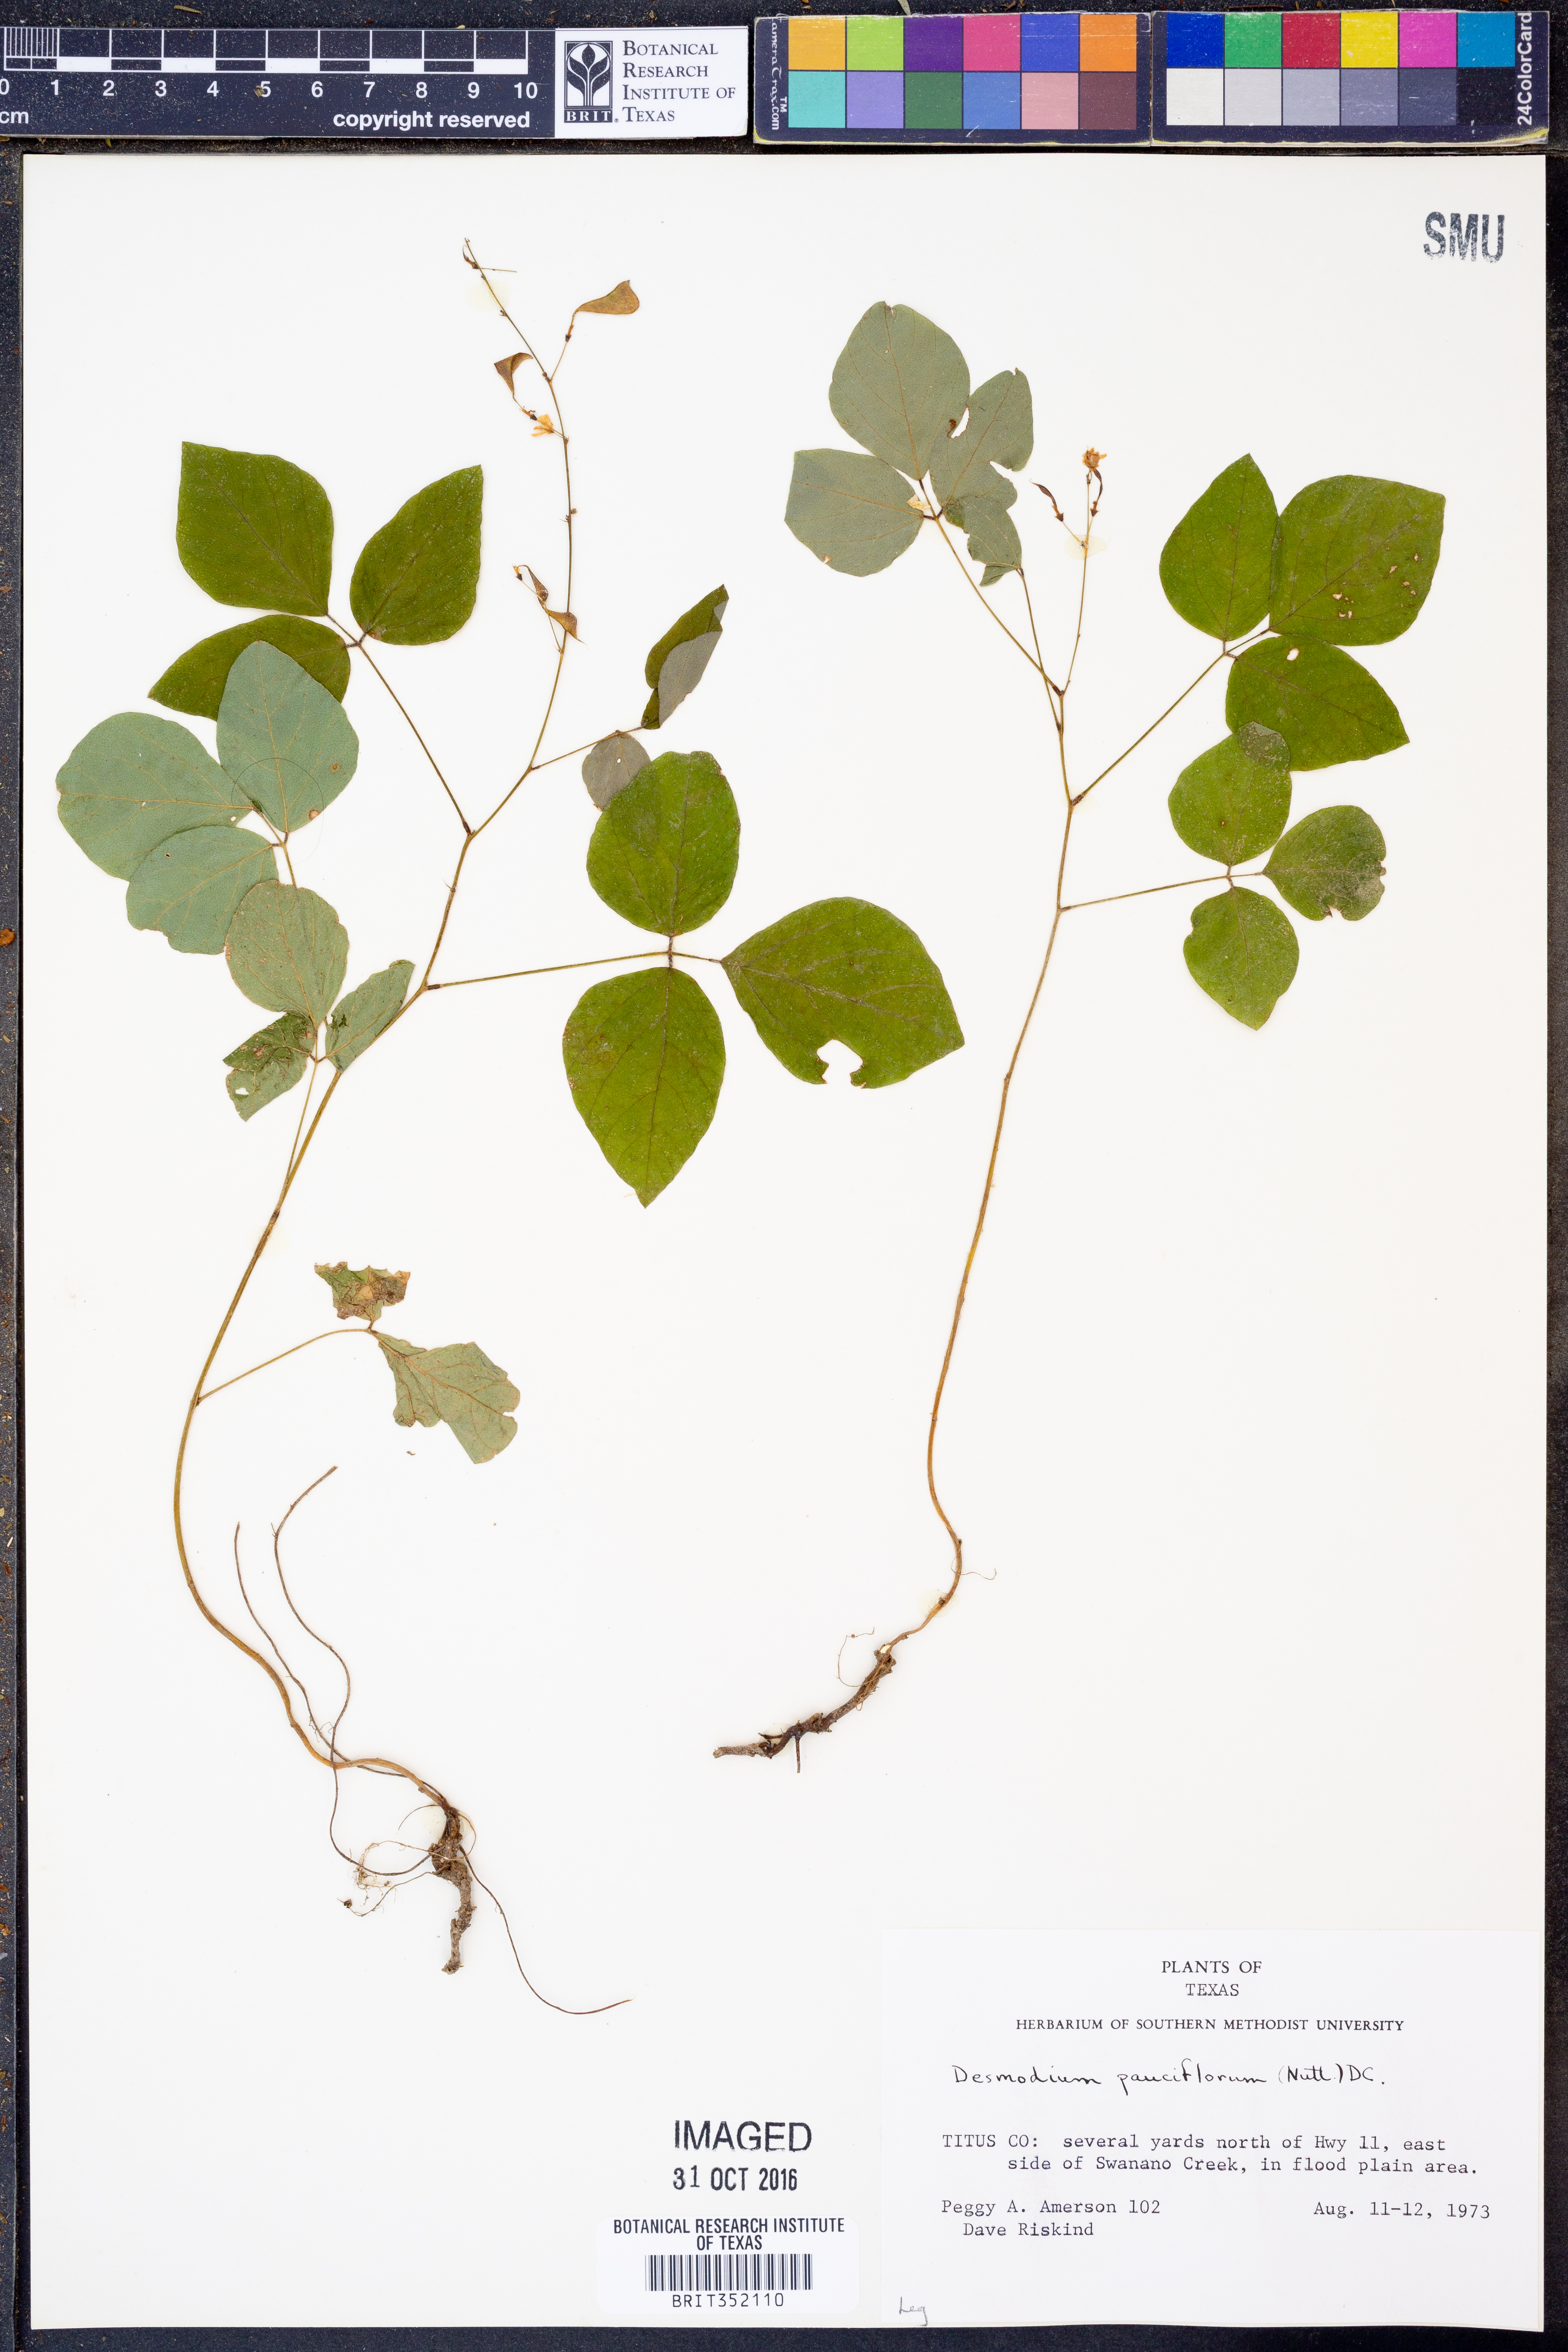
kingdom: Plantae
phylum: Tracheophyta
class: Magnoliopsida
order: Fabales
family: Fabaceae
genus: Hylodesmum
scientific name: Hylodesmum pauciflorum
